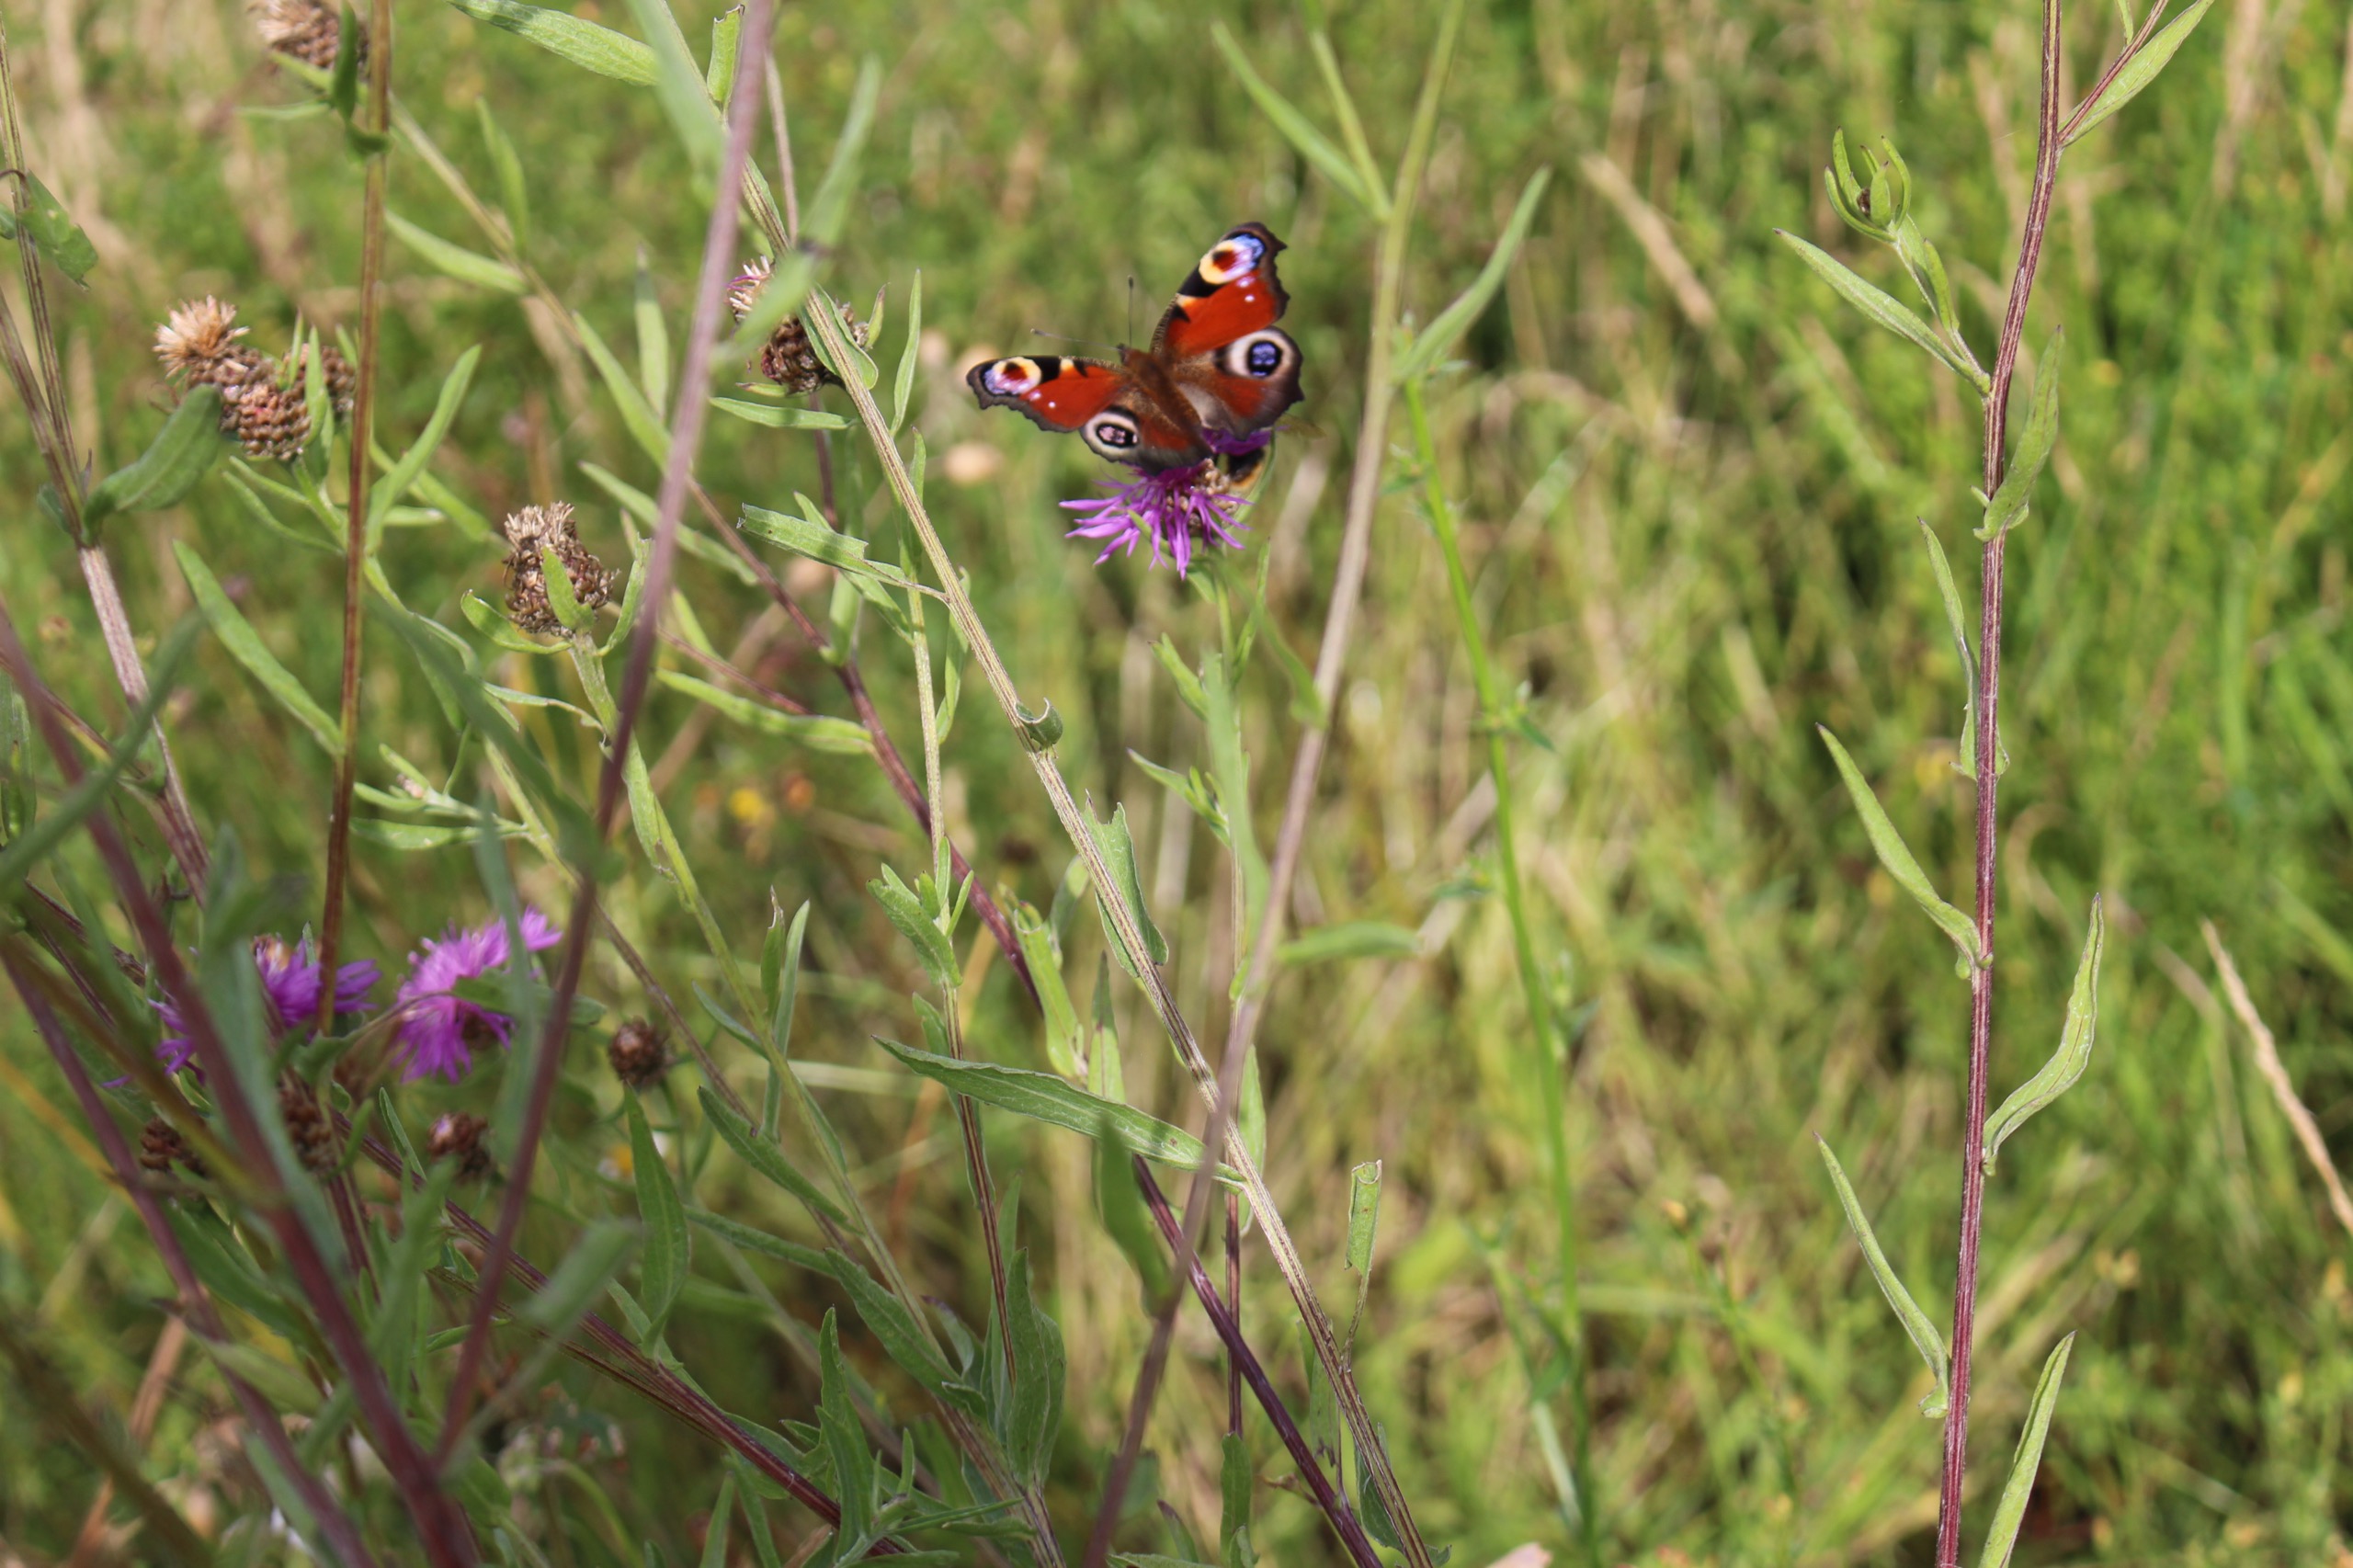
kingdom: Animalia
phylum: Arthropoda
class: Insecta
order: Lepidoptera
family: Nymphalidae
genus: Aglais
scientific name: Aglais io
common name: Dagpåfugleøje
